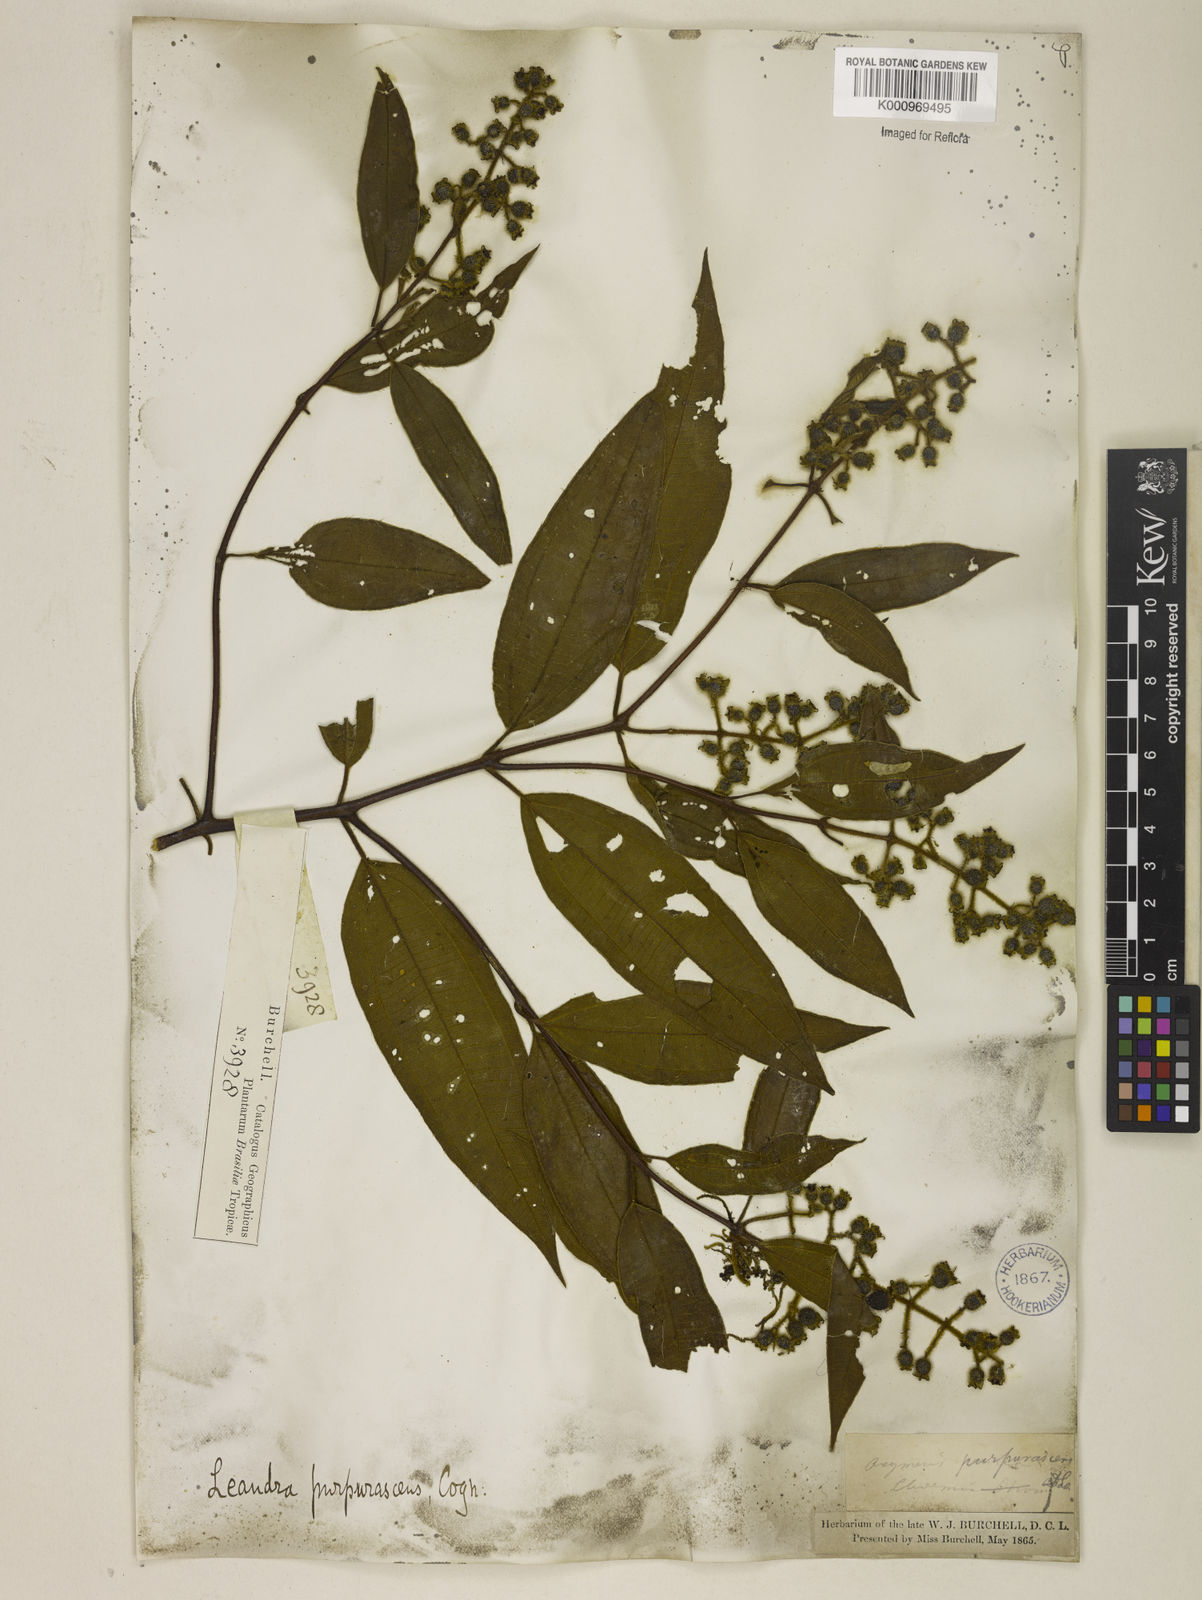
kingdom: Plantae
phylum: Tracheophyta
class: Magnoliopsida
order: Myrtales
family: Melastomataceae
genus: Miconia
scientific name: Miconia microstachya
